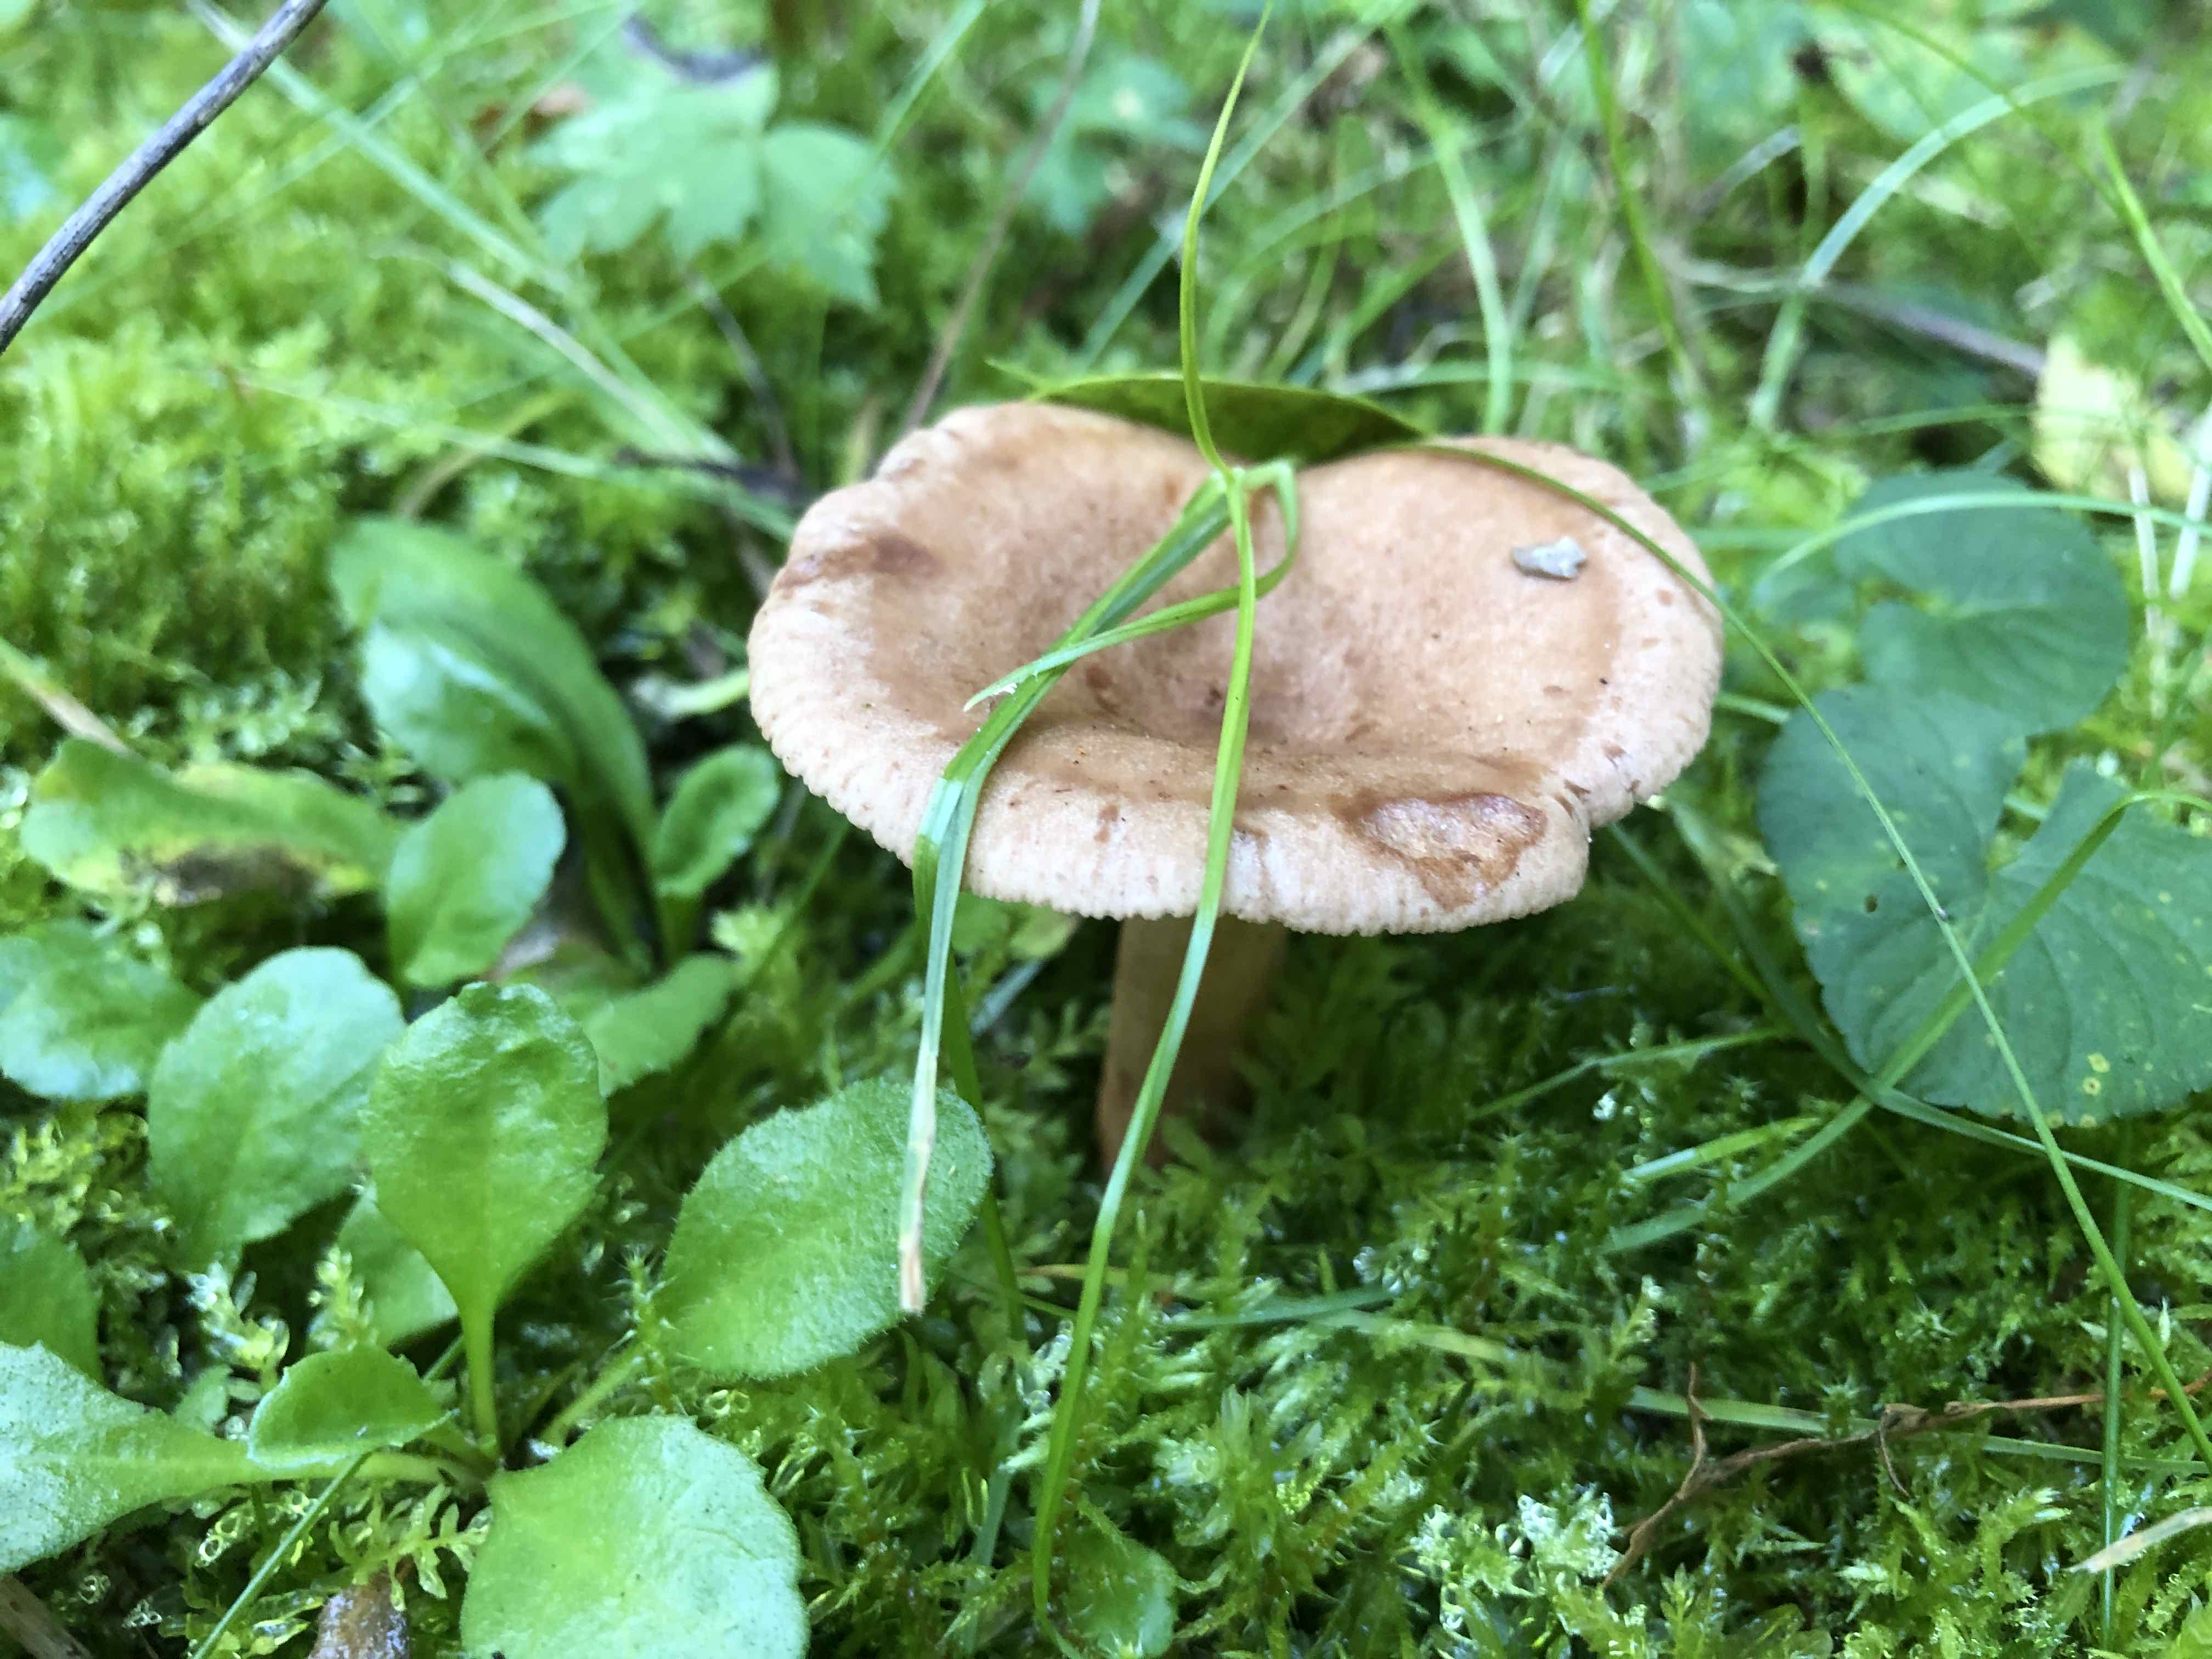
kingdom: Fungi
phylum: Basidiomycota
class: Agaricomycetes
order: Russulales
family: Russulaceae
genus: Lactarius
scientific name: Lactarius quietus
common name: ege-mælkehat
